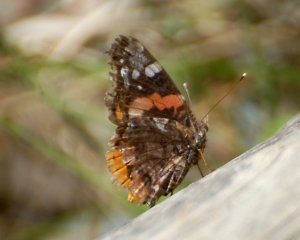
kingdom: Animalia
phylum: Arthropoda
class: Insecta
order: Lepidoptera
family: Nymphalidae
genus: Vanessa
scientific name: Vanessa atalanta
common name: Red Admiral
